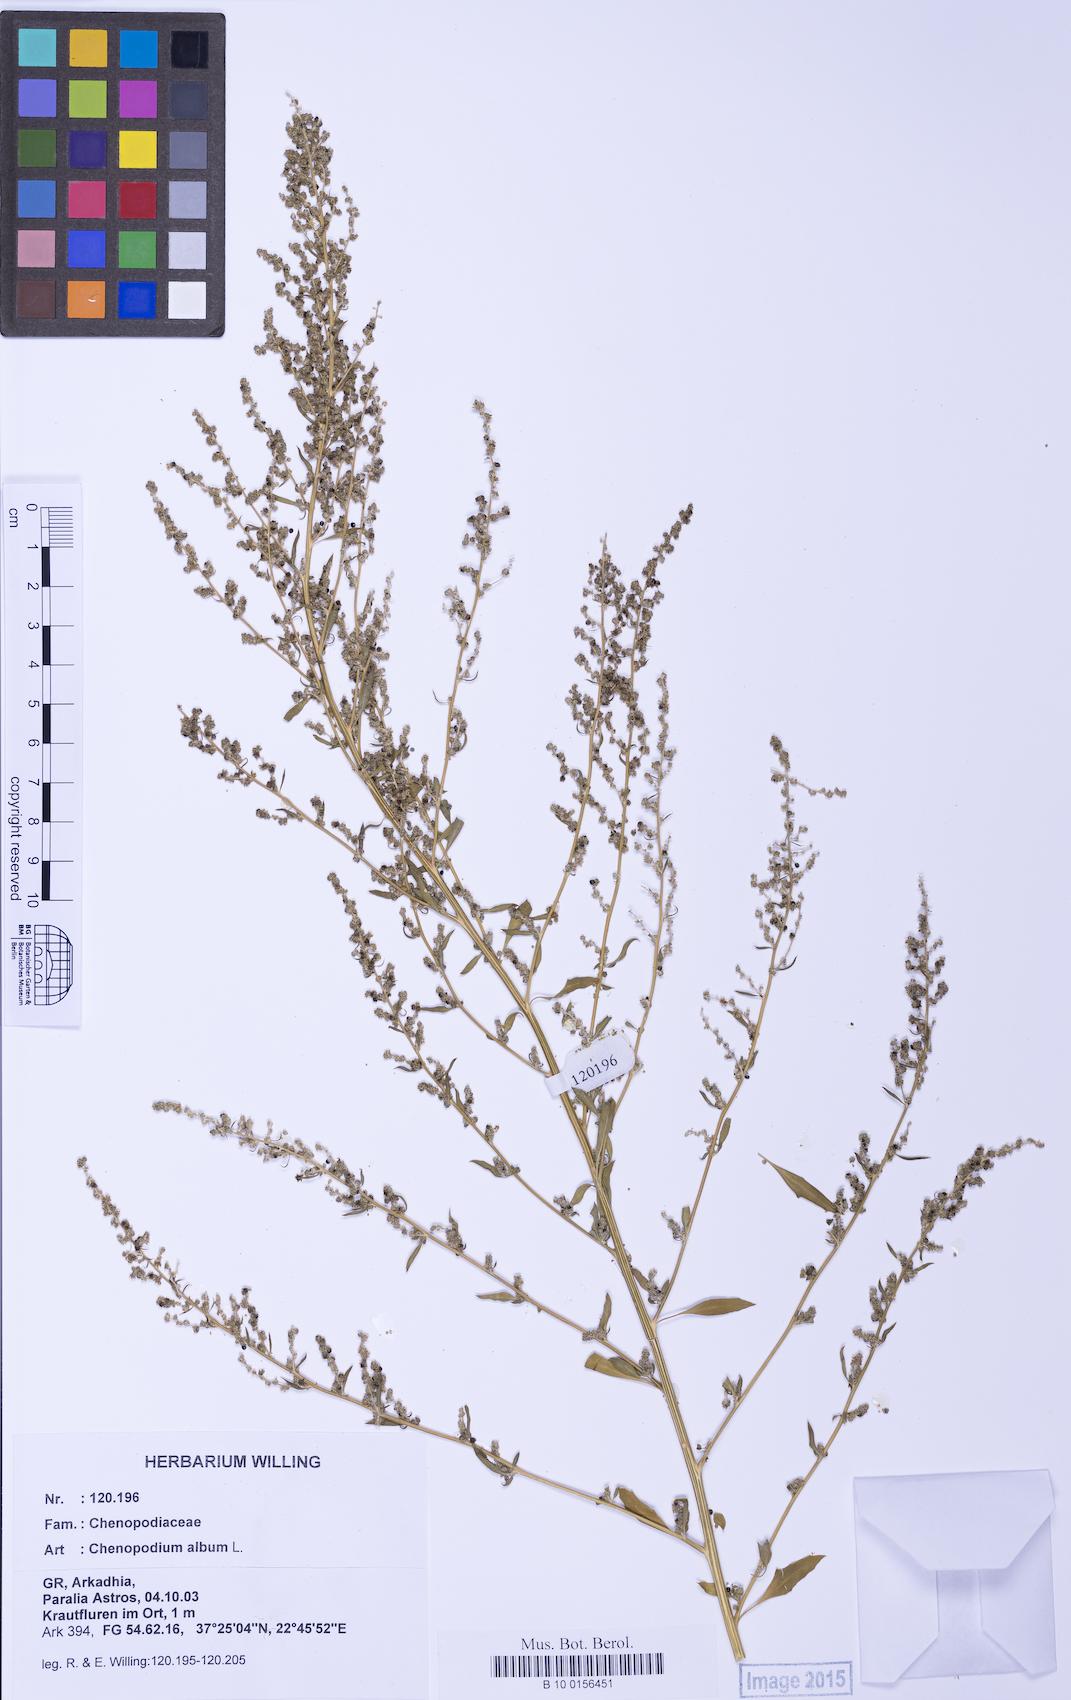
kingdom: Plantae
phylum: Tracheophyta
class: Magnoliopsida
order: Caryophyllales
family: Amaranthaceae
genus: Chenopodium
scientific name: Chenopodium album
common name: Fat-hen
